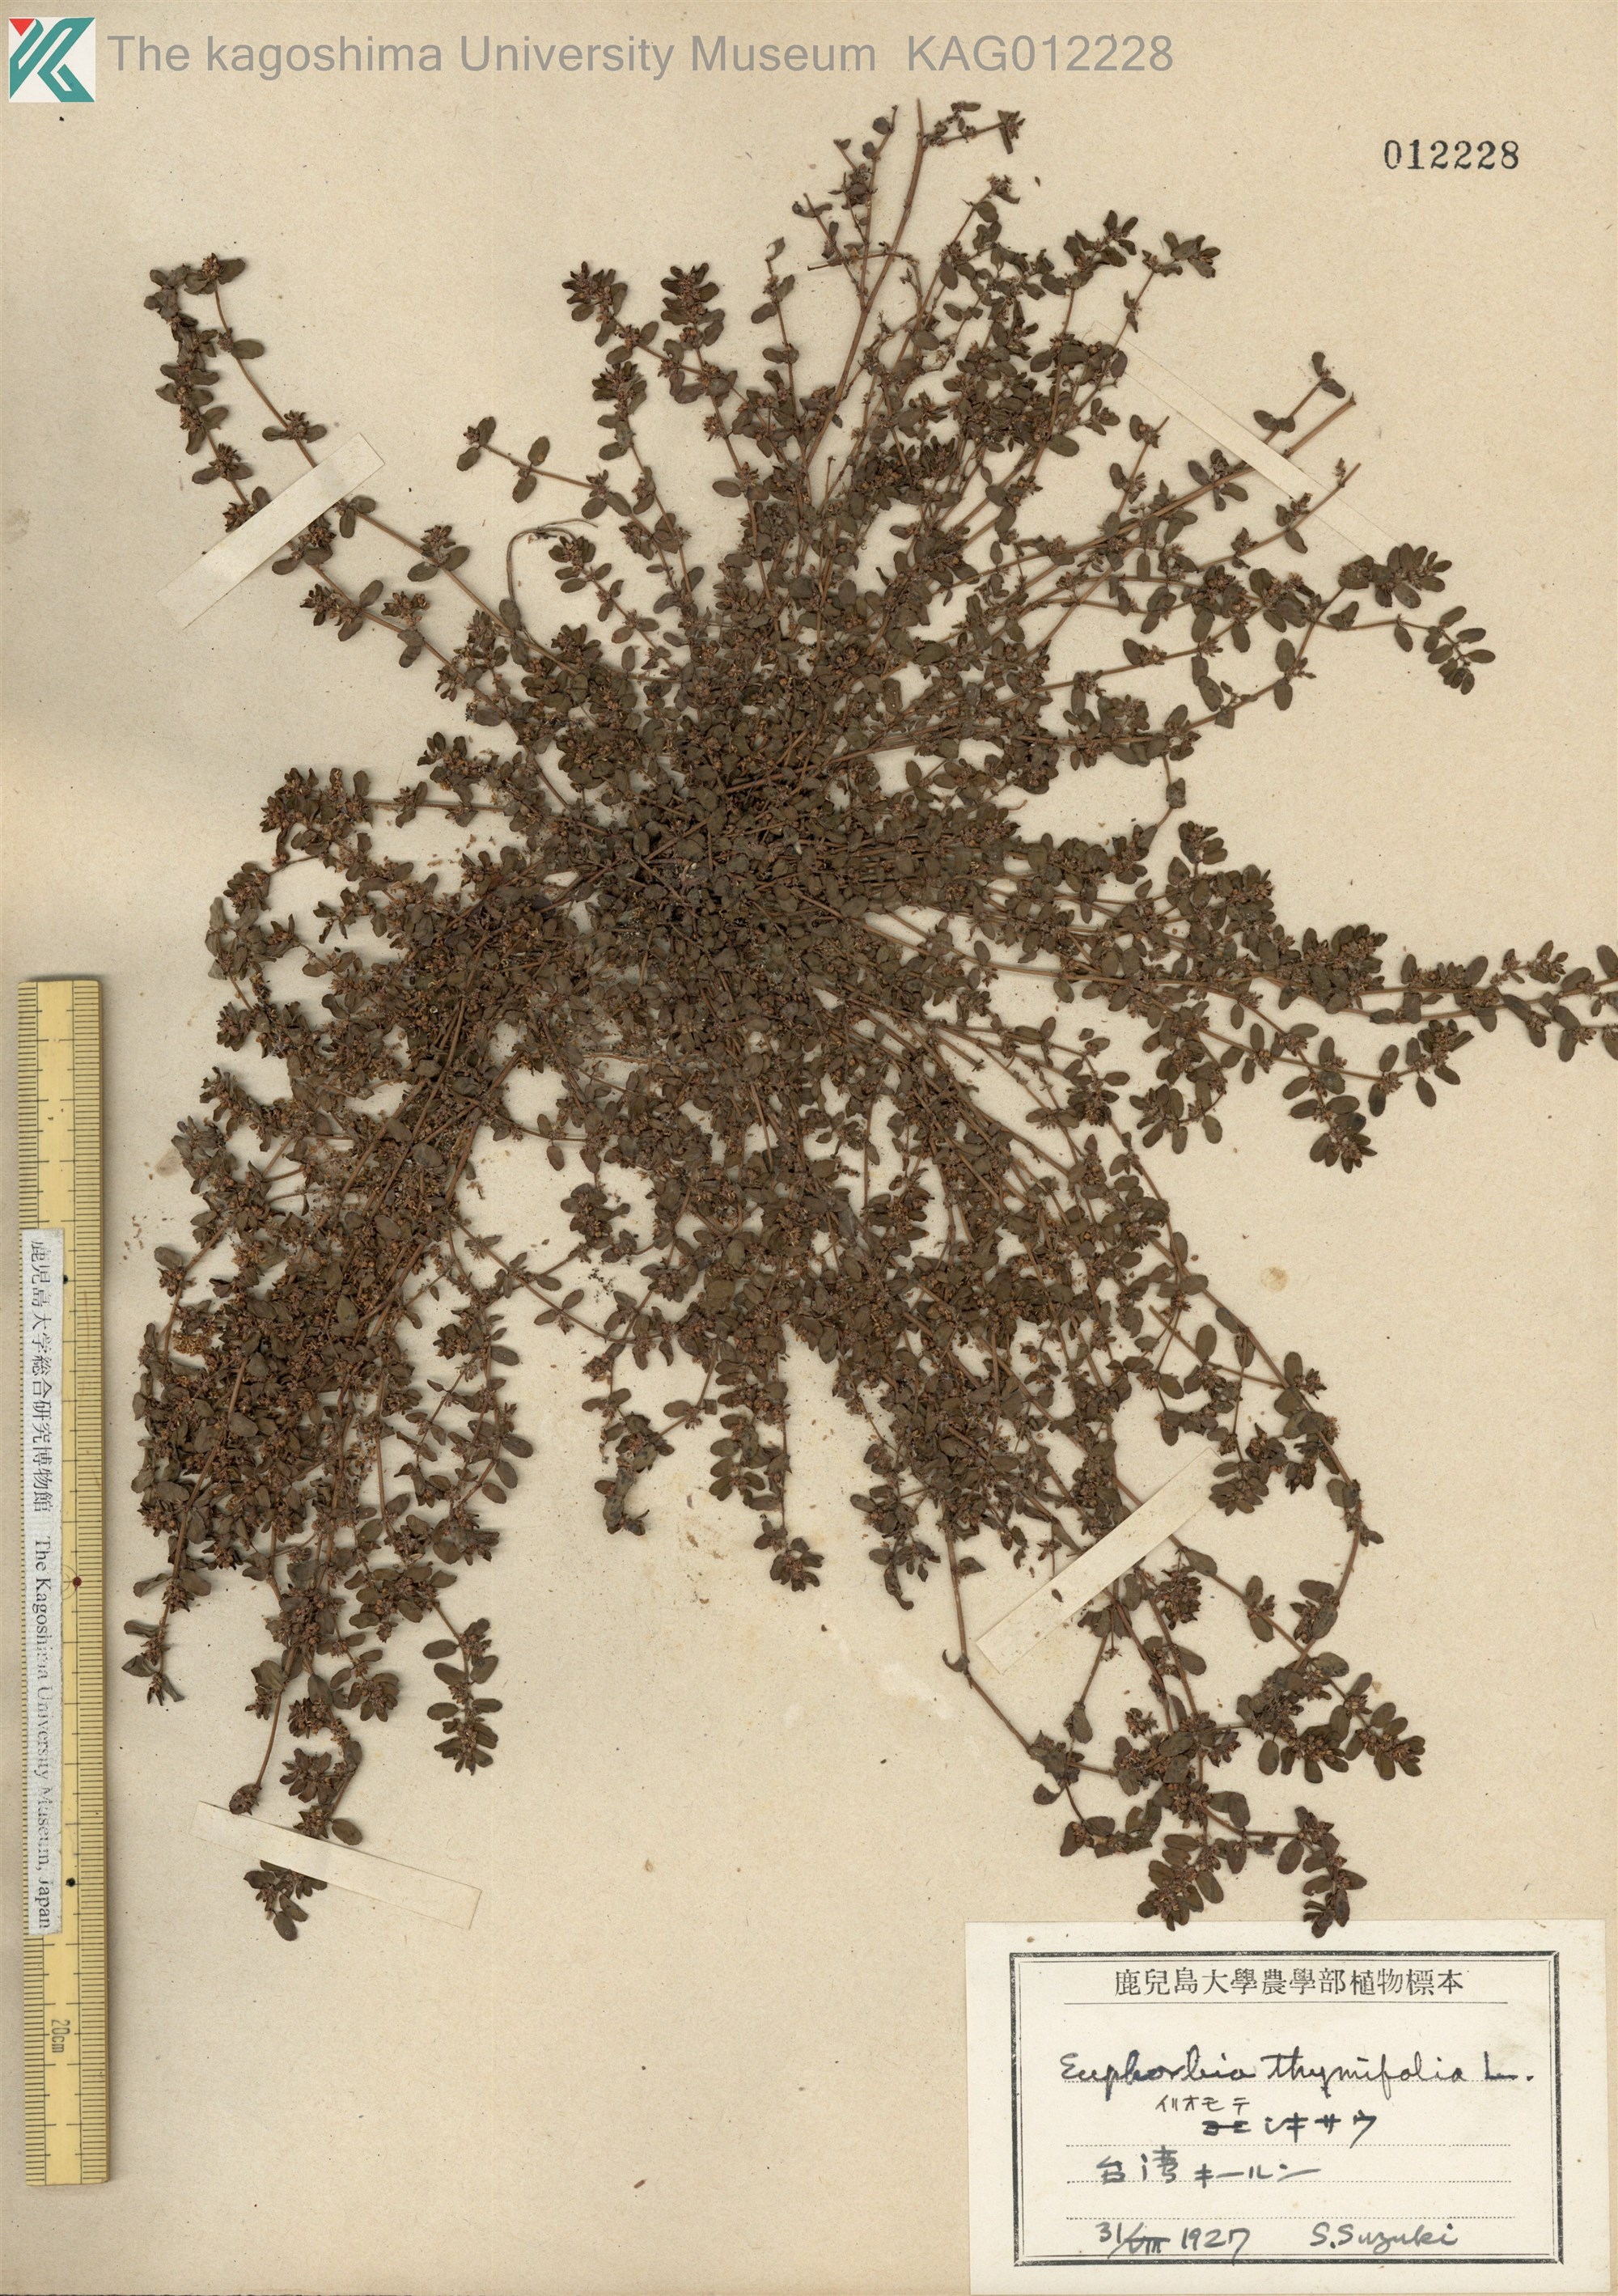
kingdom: Plantae
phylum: Tracheophyta
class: Magnoliopsida
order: Malpighiales
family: Euphorbiaceae
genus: Euphorbia
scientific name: Euphorbia thymifolia
